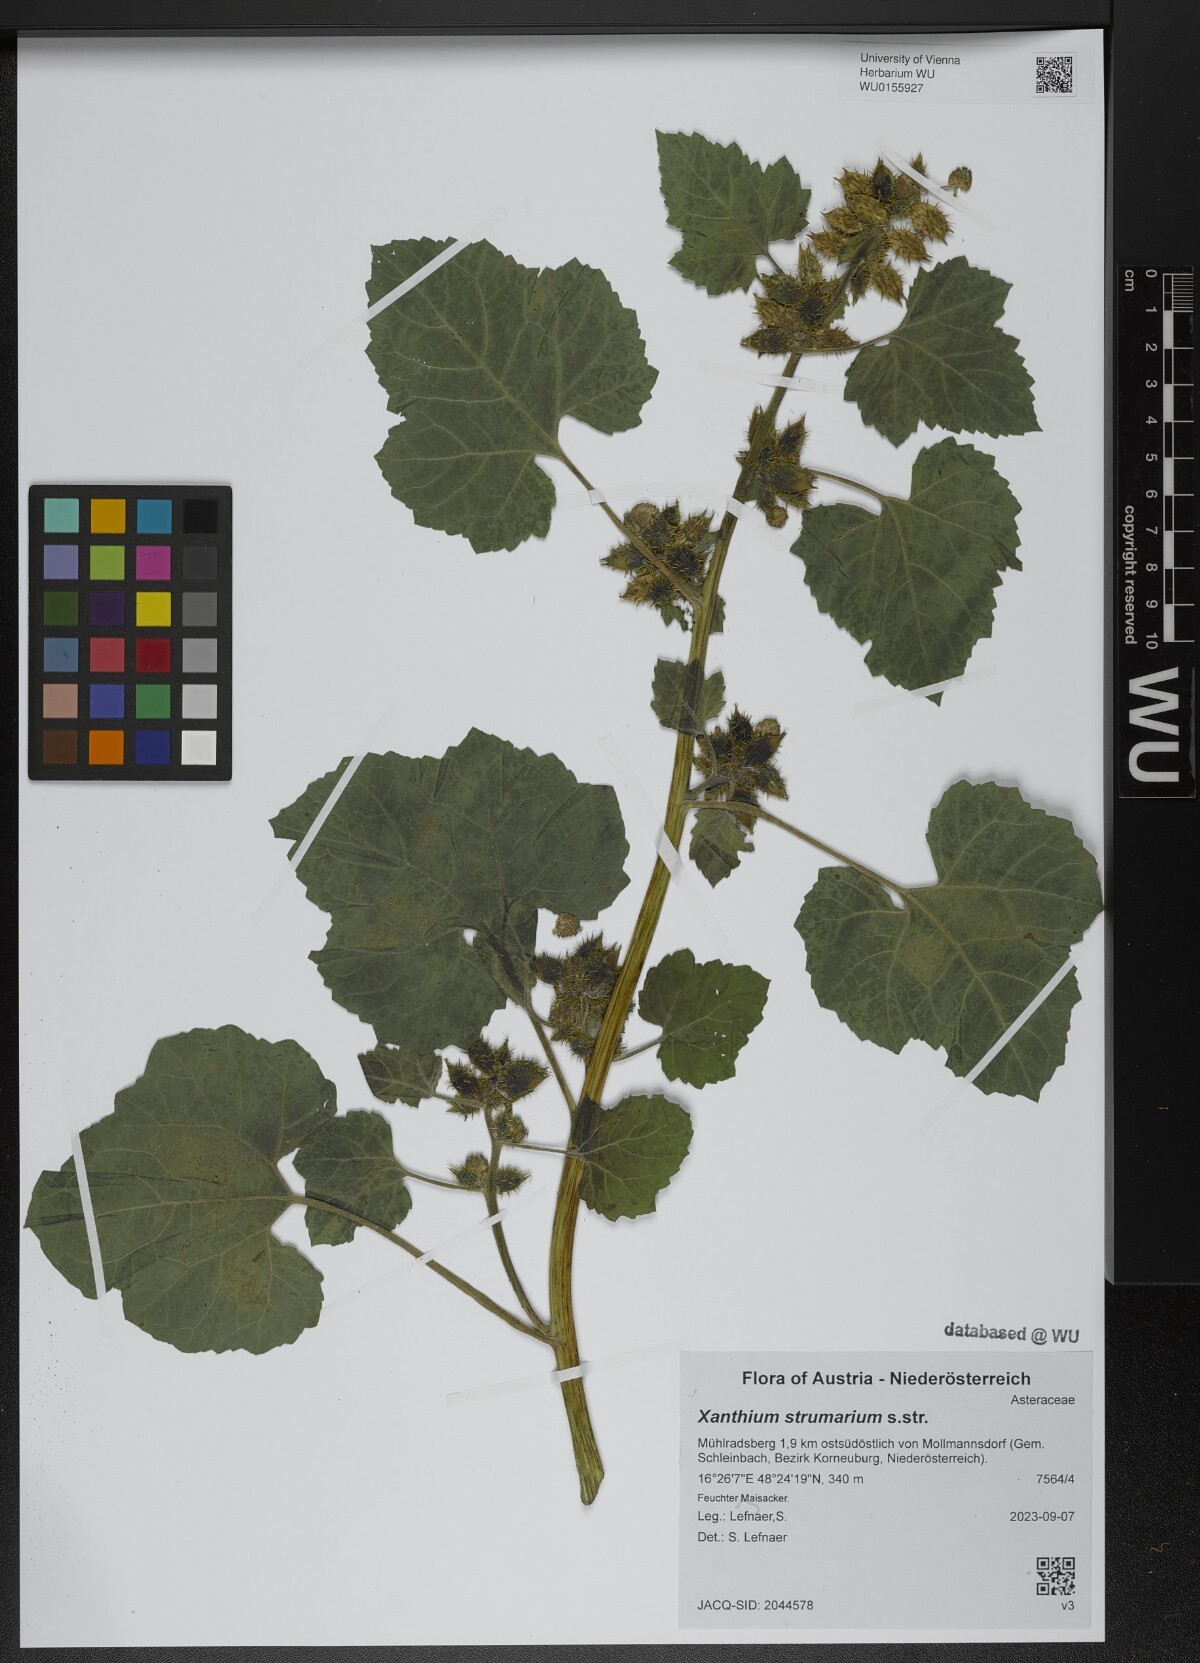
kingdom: Plantae
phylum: Tracheophyta
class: Magnoliopsida
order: Asterales
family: Asteraceae
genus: Xanthium
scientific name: Xanthium strumarium
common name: Rough cocklebur
